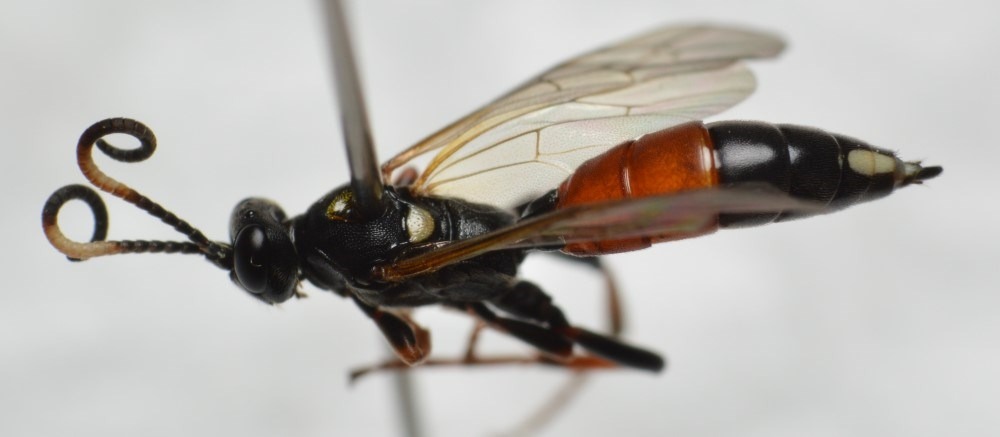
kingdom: Animalia
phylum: Arthropoda
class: Insecta
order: Hymenoptera
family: Ichneumonidae
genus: Ichneumon
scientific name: Ichneumon gracilentus
